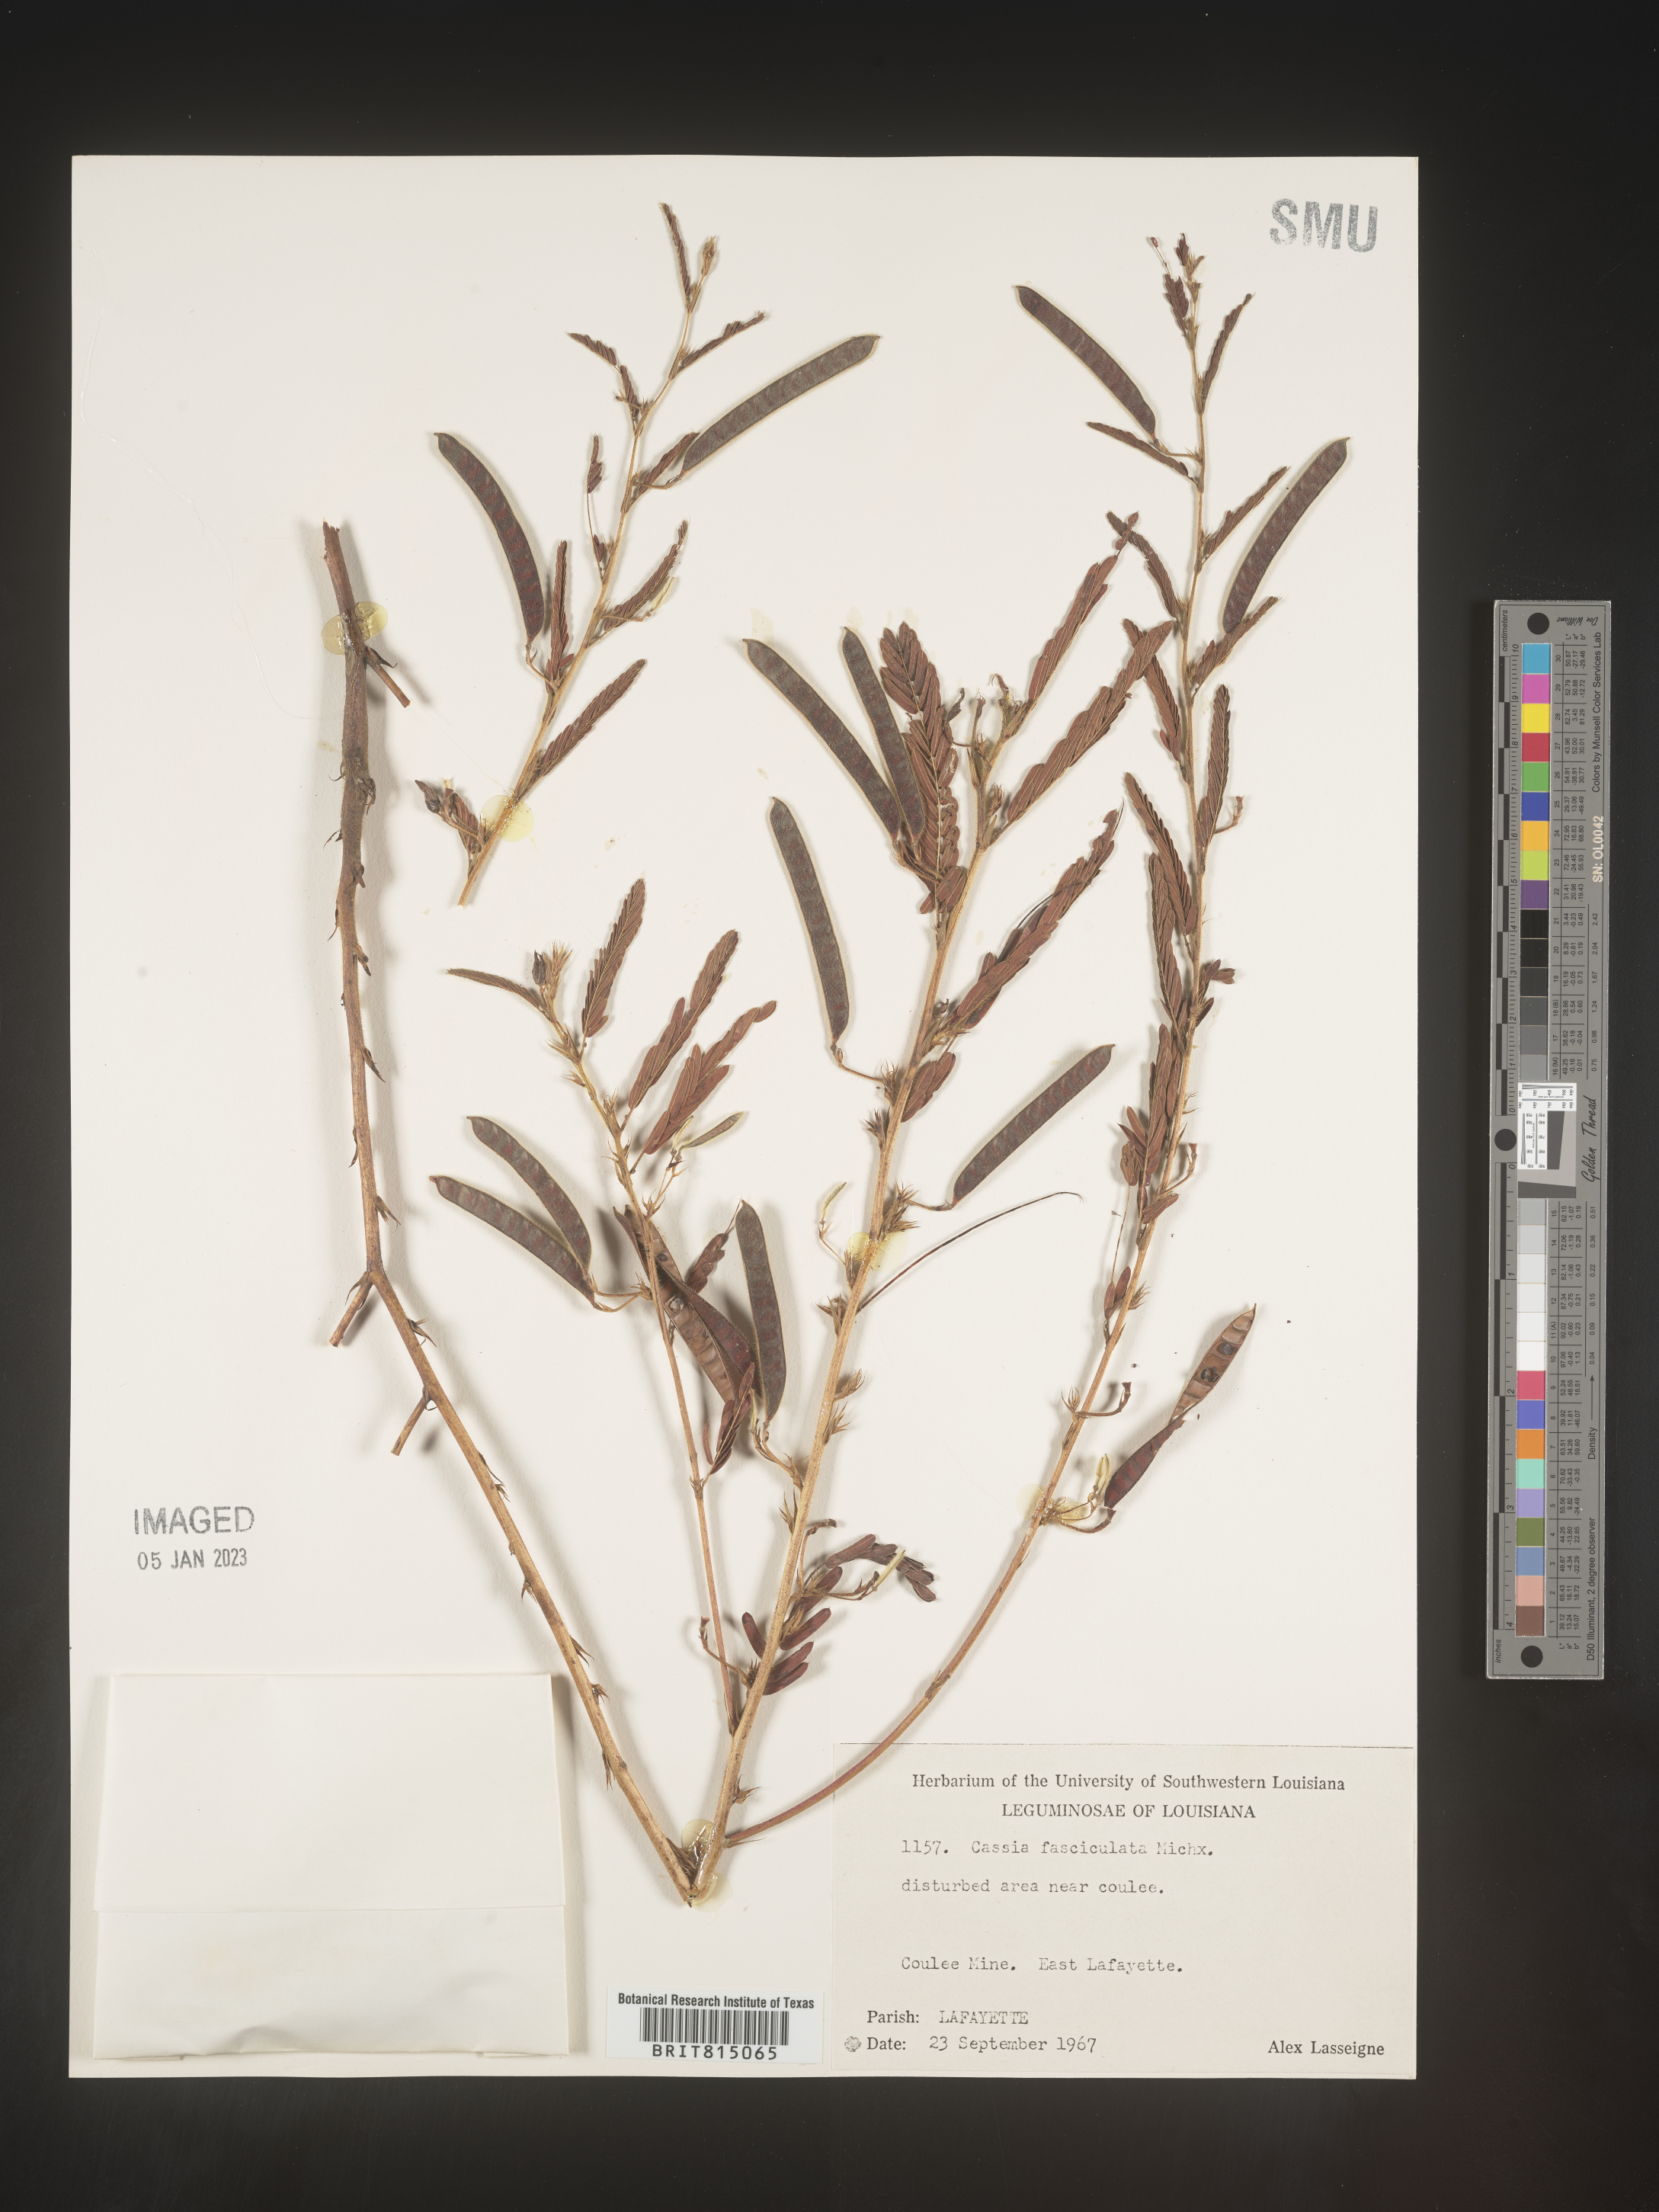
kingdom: Plantae
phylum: Tracheophyta
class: Magnoliopsida
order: Fabales
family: Fabaceae
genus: Chamaecrista
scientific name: Chamaecrista fasciculata
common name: Golden cassia
